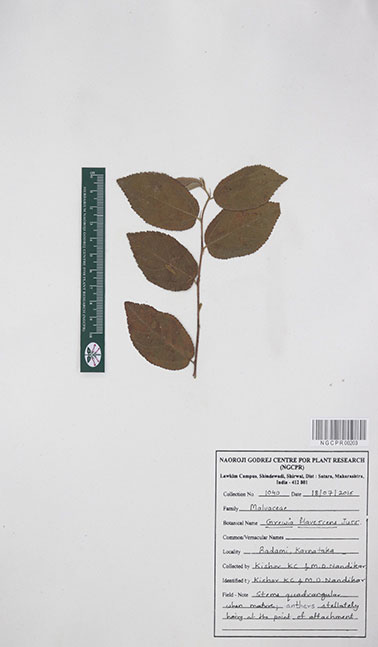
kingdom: Plantae
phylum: Tracheophyta
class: Magnoliopsida
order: Malvales
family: Malvaceae
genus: Grewia
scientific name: Grewia flavescens
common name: Sandpaper raisin
